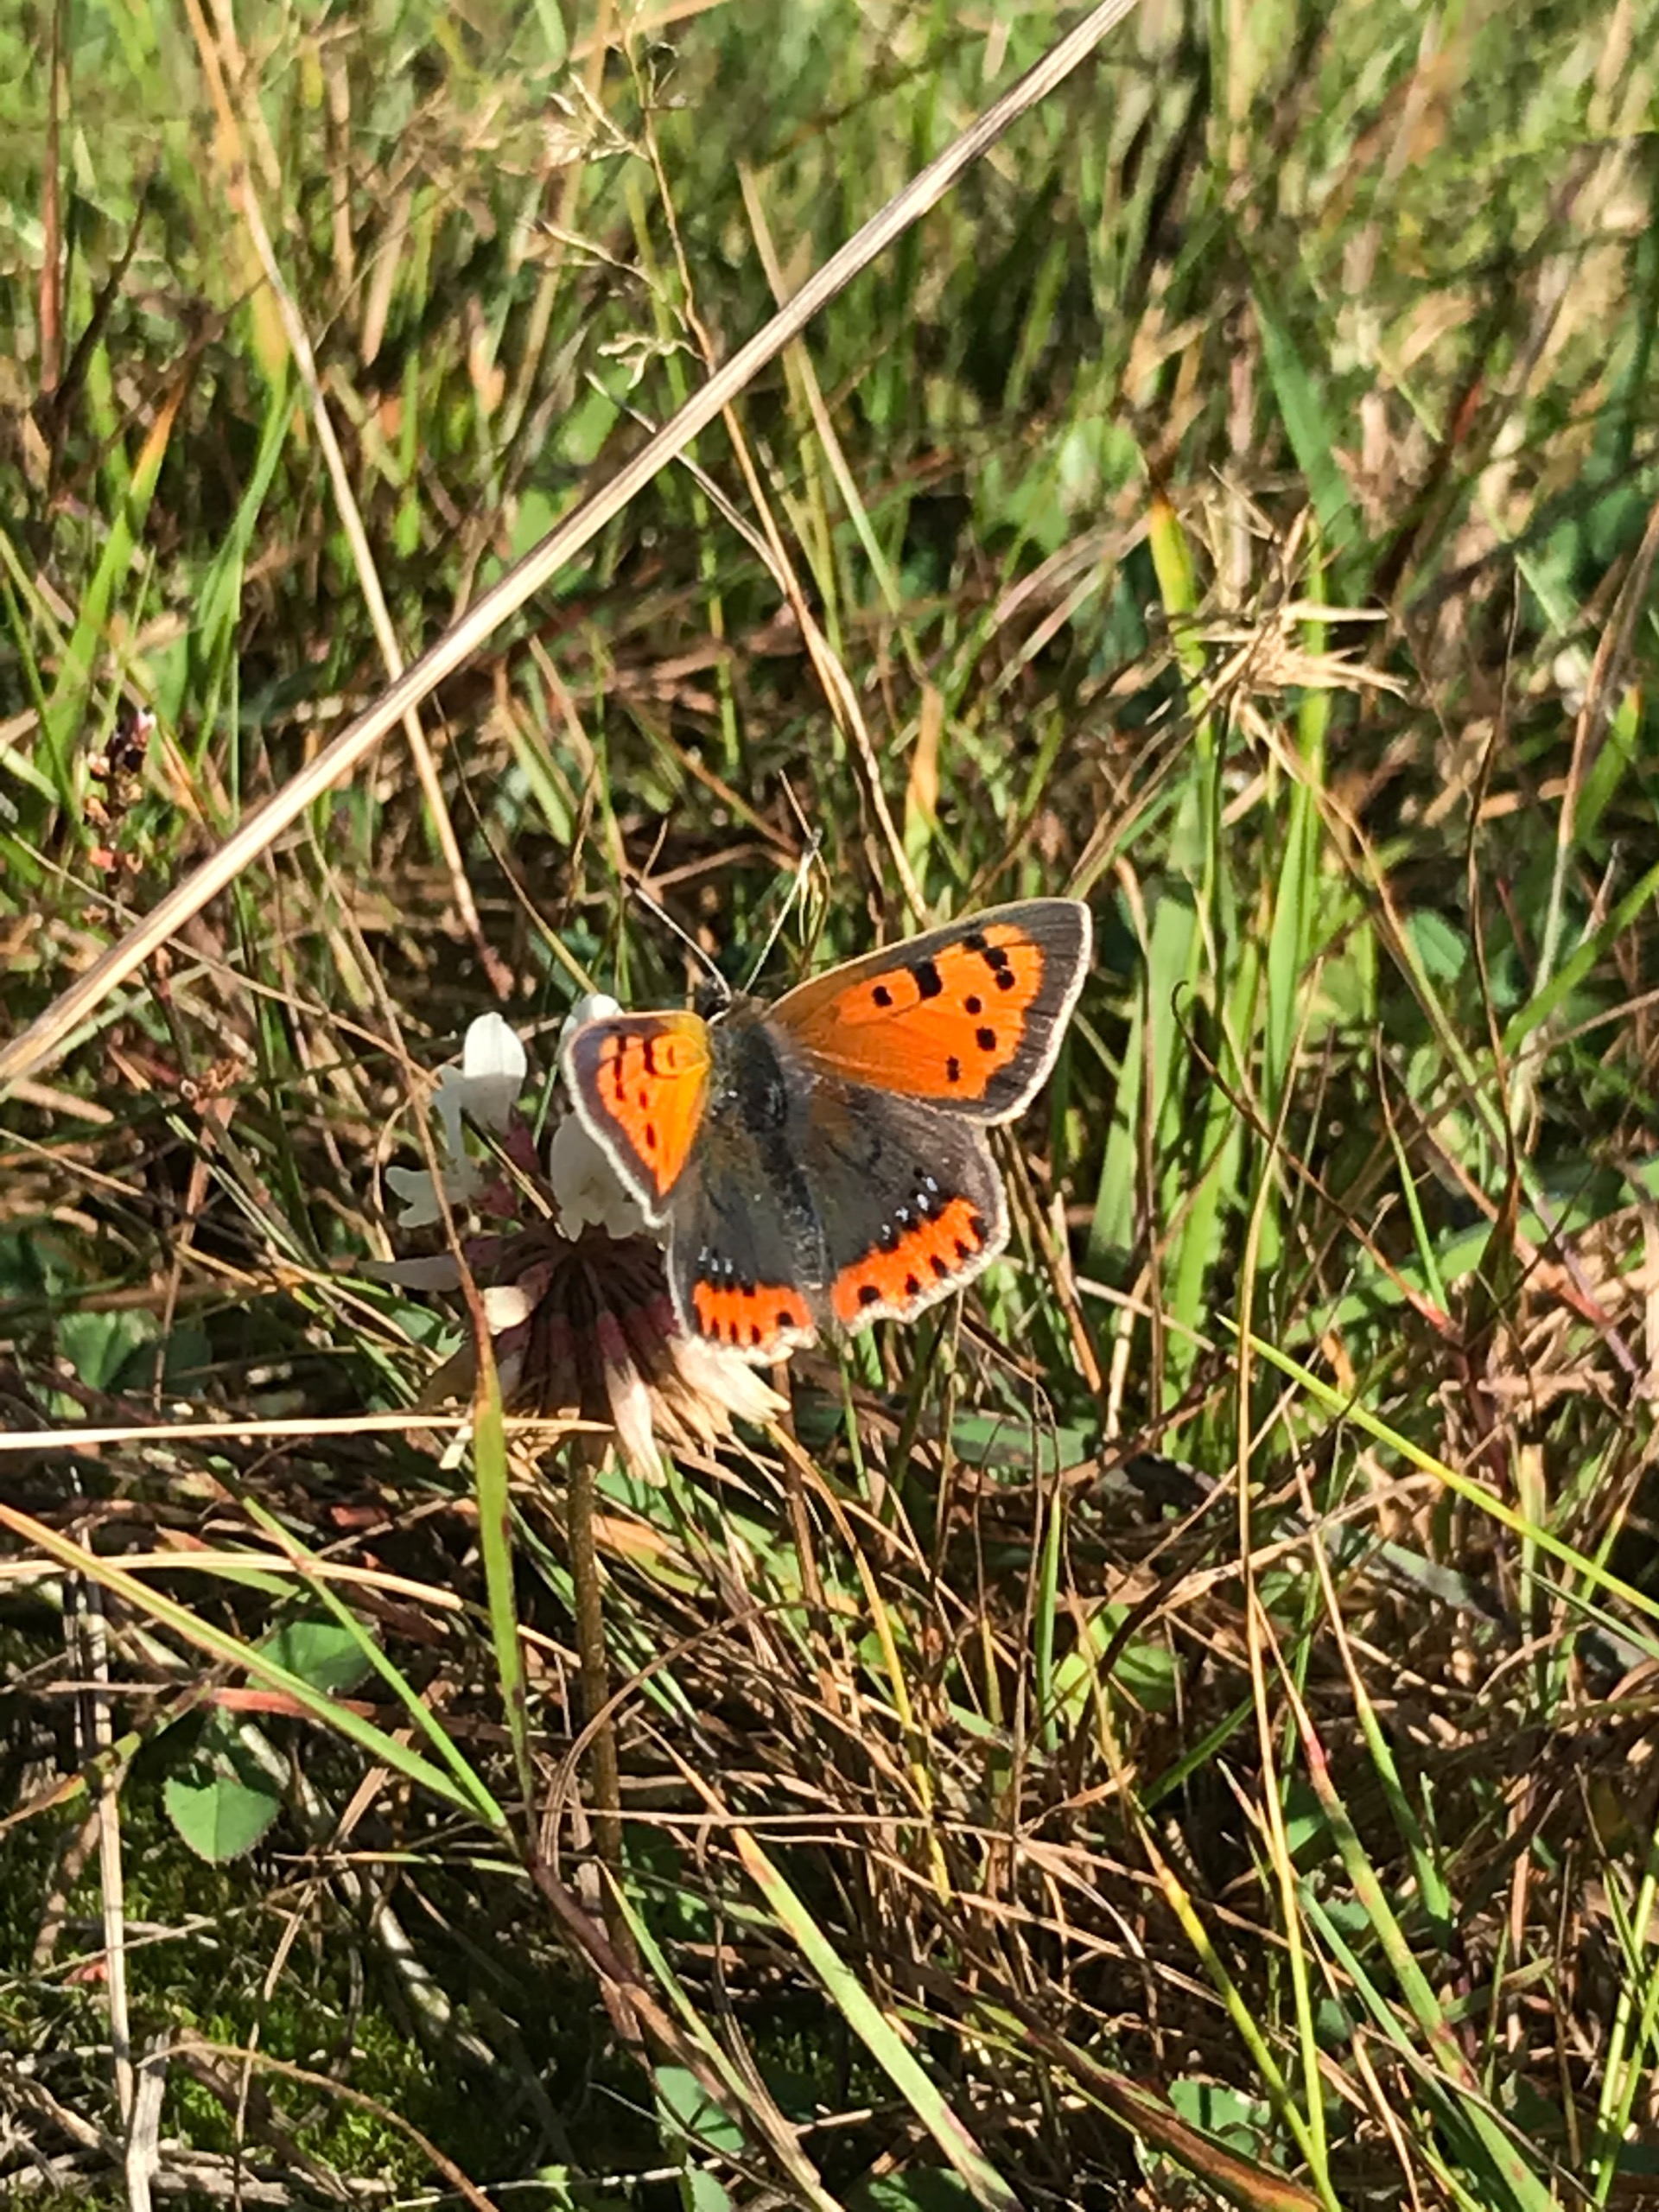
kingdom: Animalia
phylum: Arthropoda
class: Insecta
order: Lepidoptera
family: Lycaenidae
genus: Lycaena
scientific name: Lycaena phlaeas
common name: Lille ildfugl
